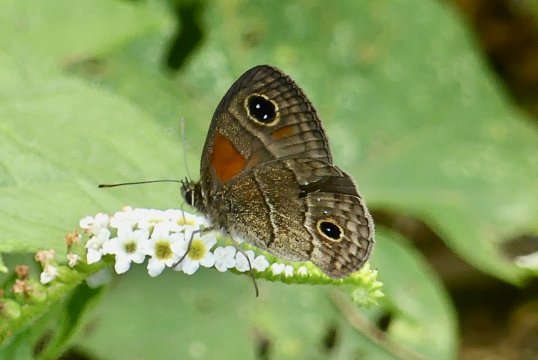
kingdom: Animalia
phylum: Arthropoda
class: Insecta
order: Lepidoptera
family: Nymphalidae
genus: Calisto
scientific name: Calisto
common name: Bates' Calisto
